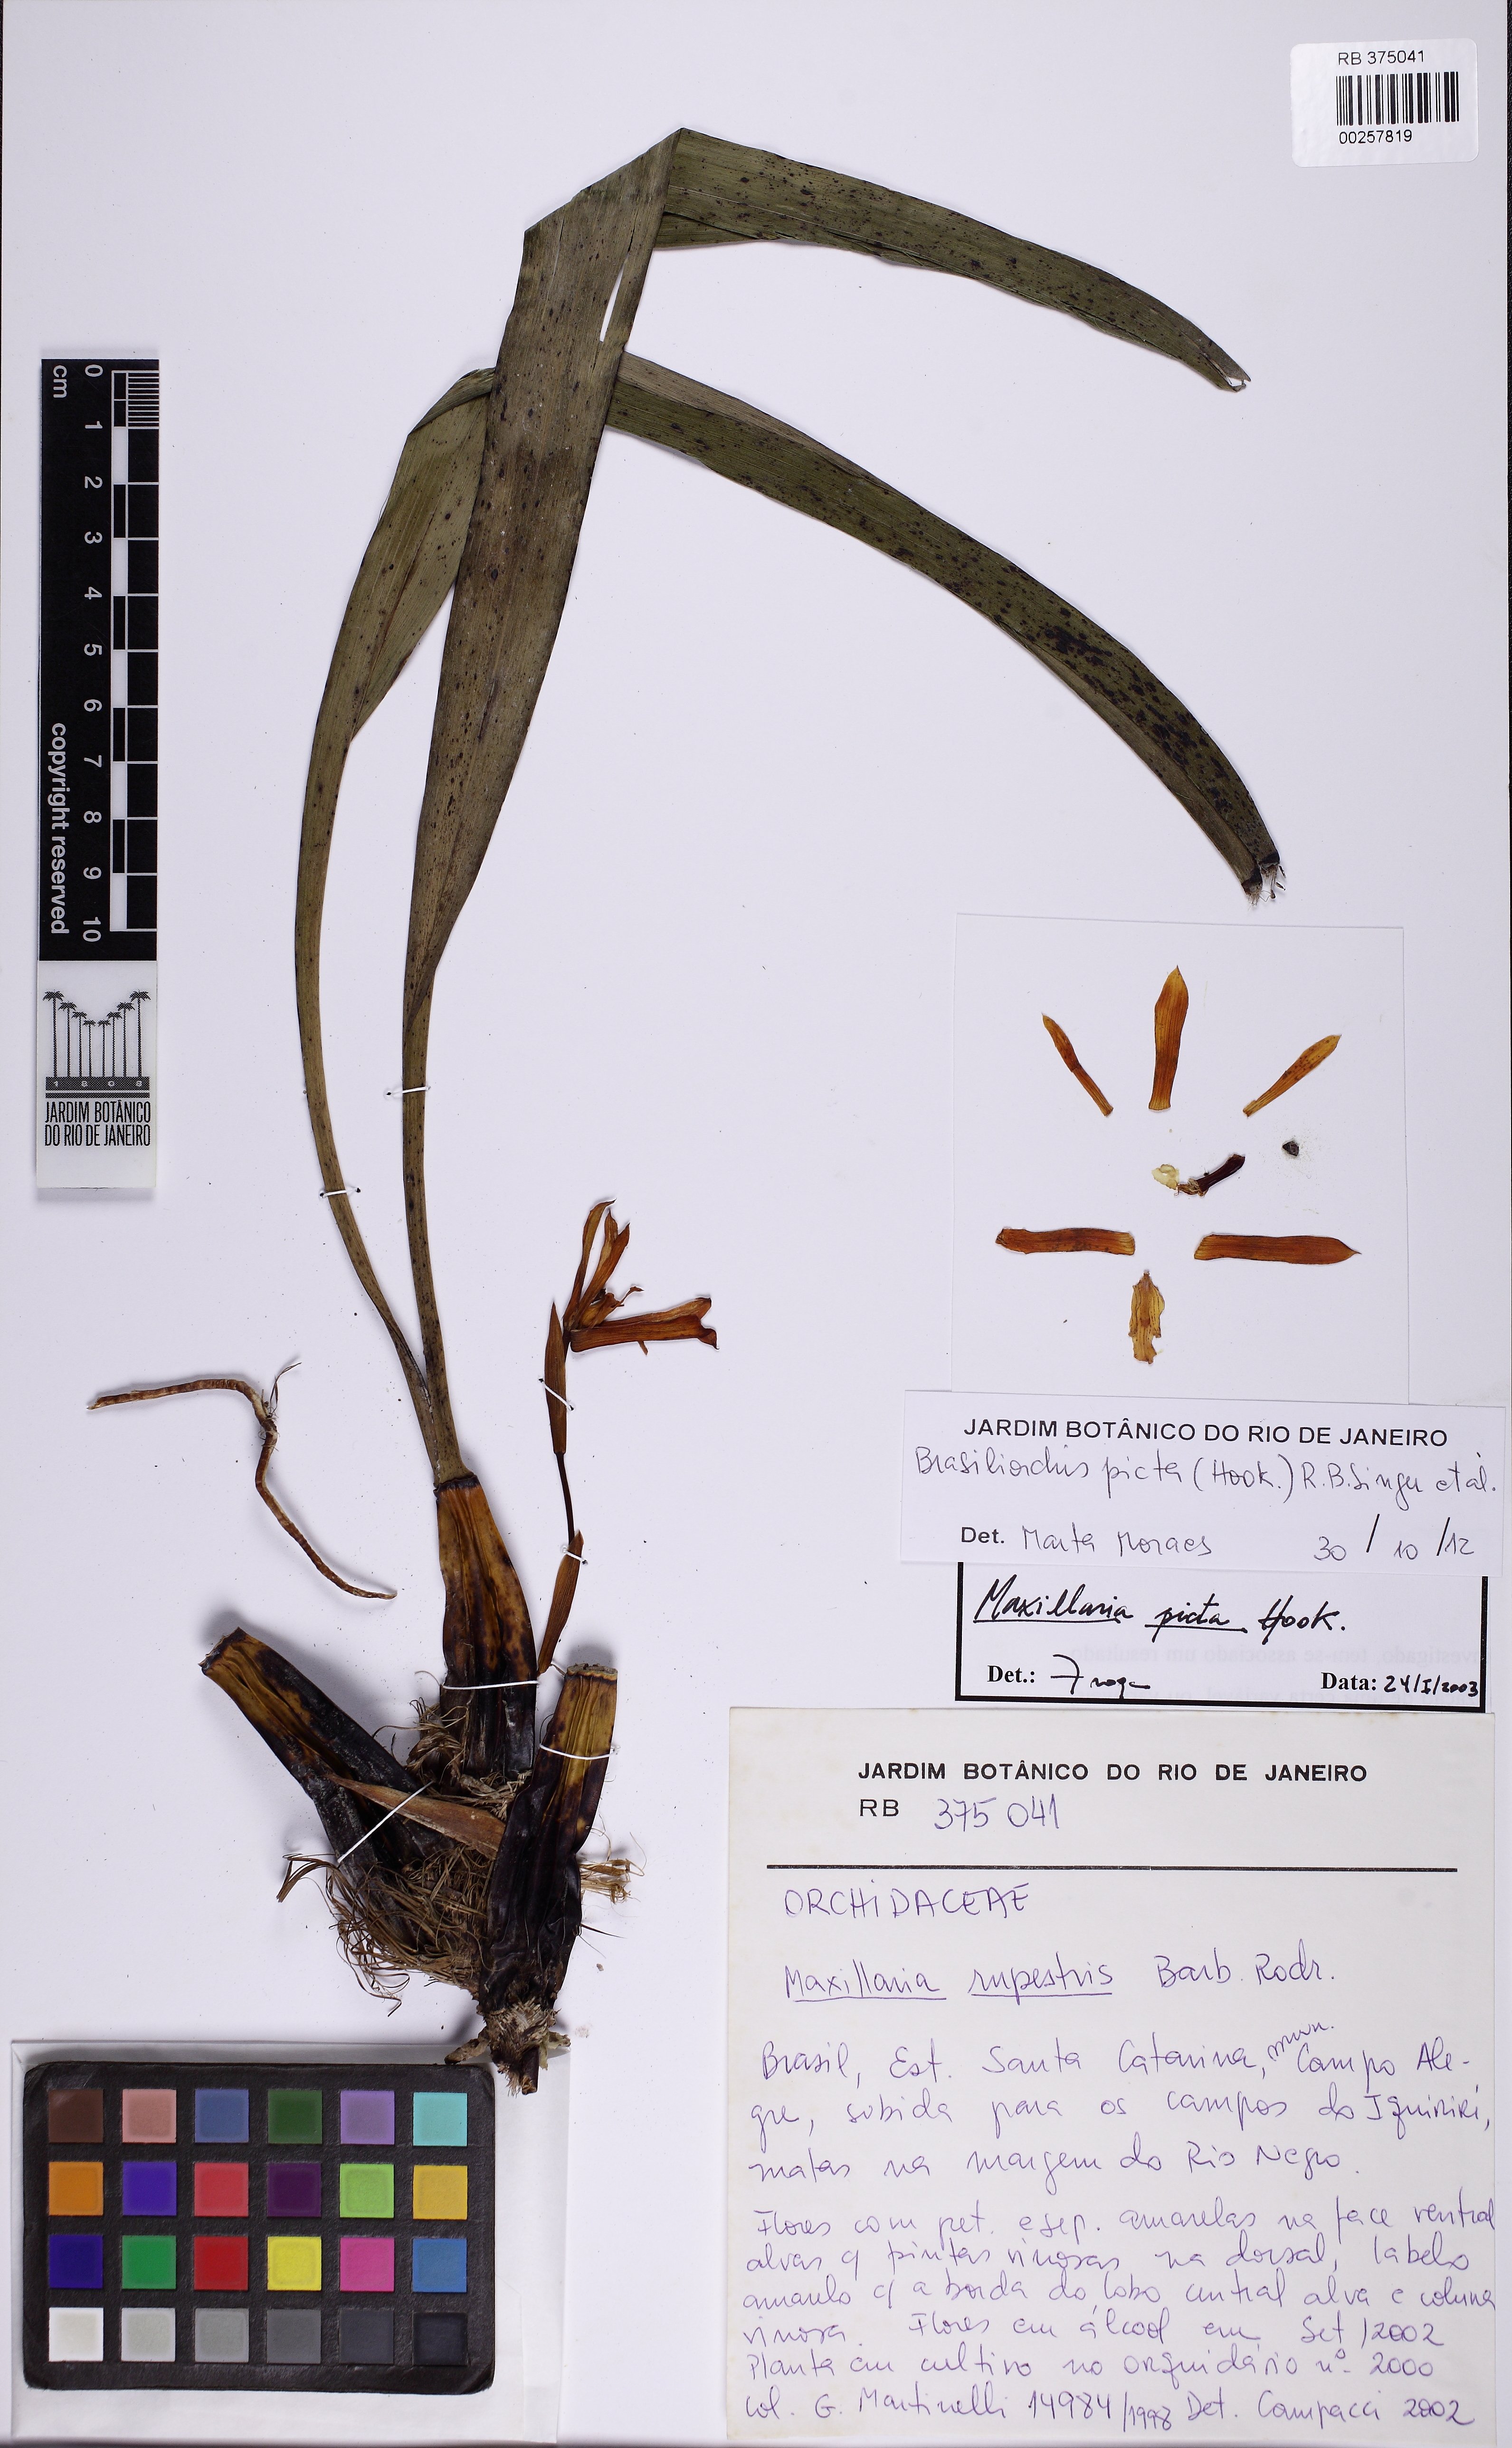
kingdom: Plantae
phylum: Tracheophyta
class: Liliopsida
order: Asparagales
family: Orchidaceae
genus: Maxillaria
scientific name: Maxillaria picta
